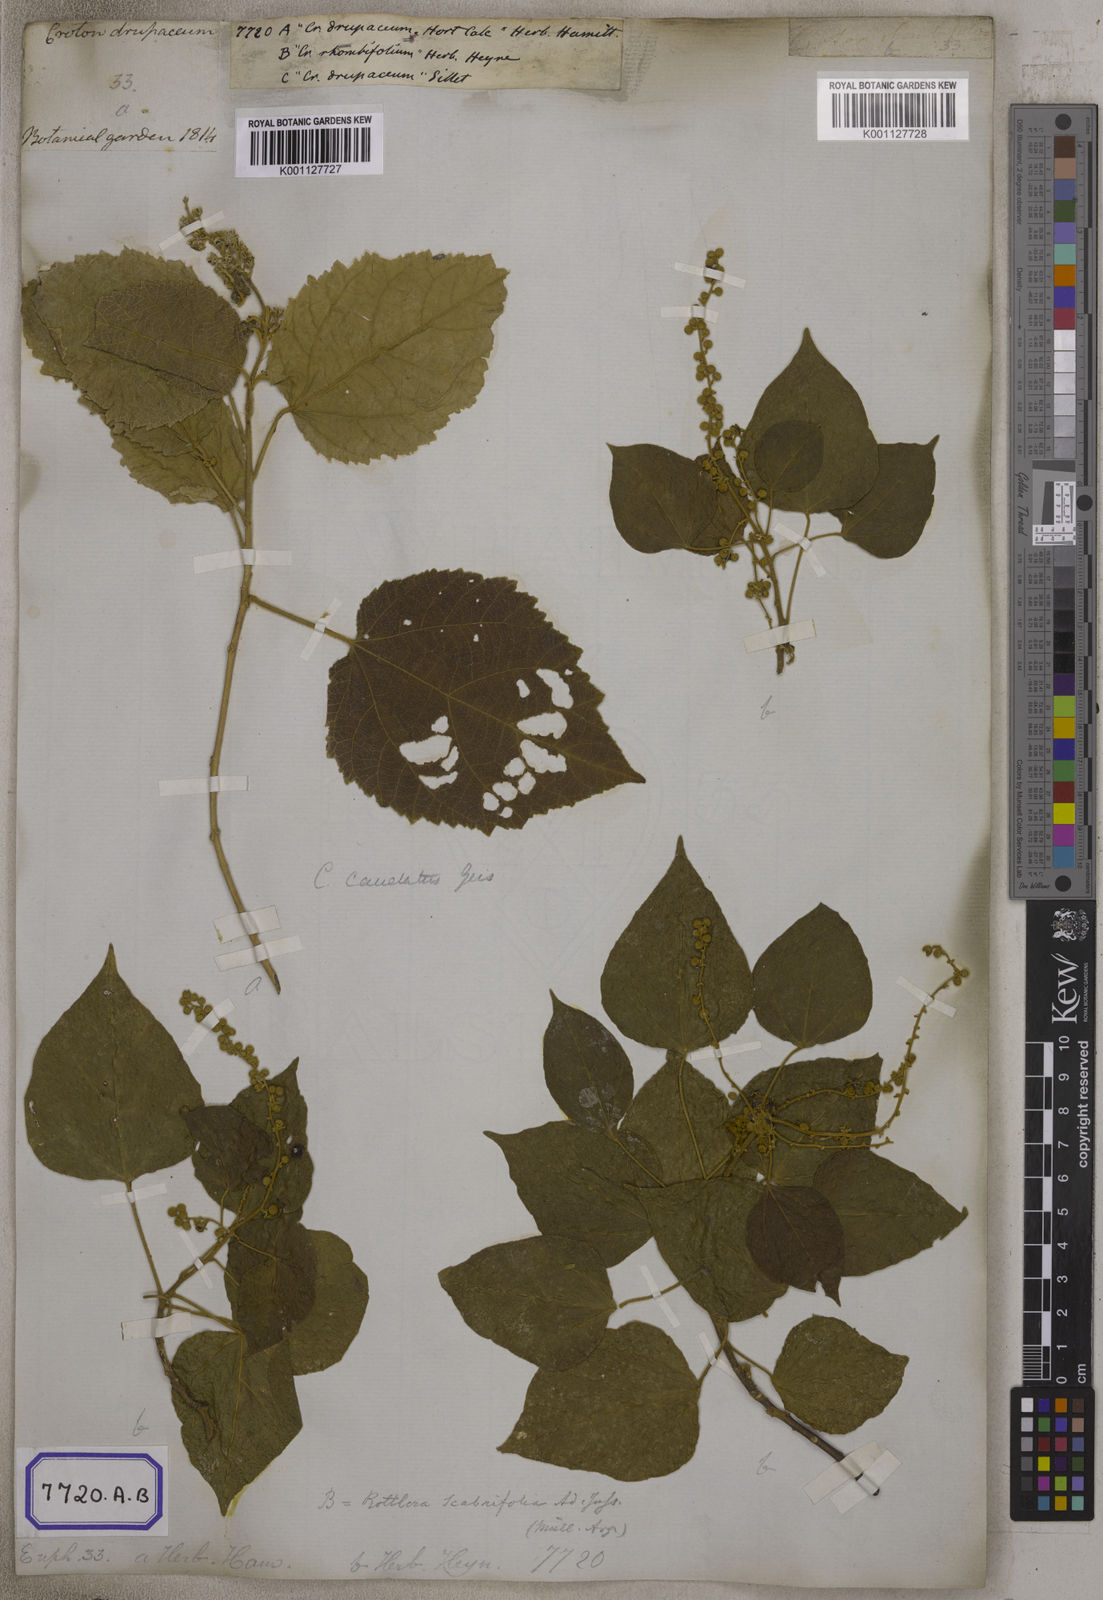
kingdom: Plantae
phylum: Tracheophyta
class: Magnoliopsida
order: Malpighiales
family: Euphorbiaceae
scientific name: Euphorbiaceae
